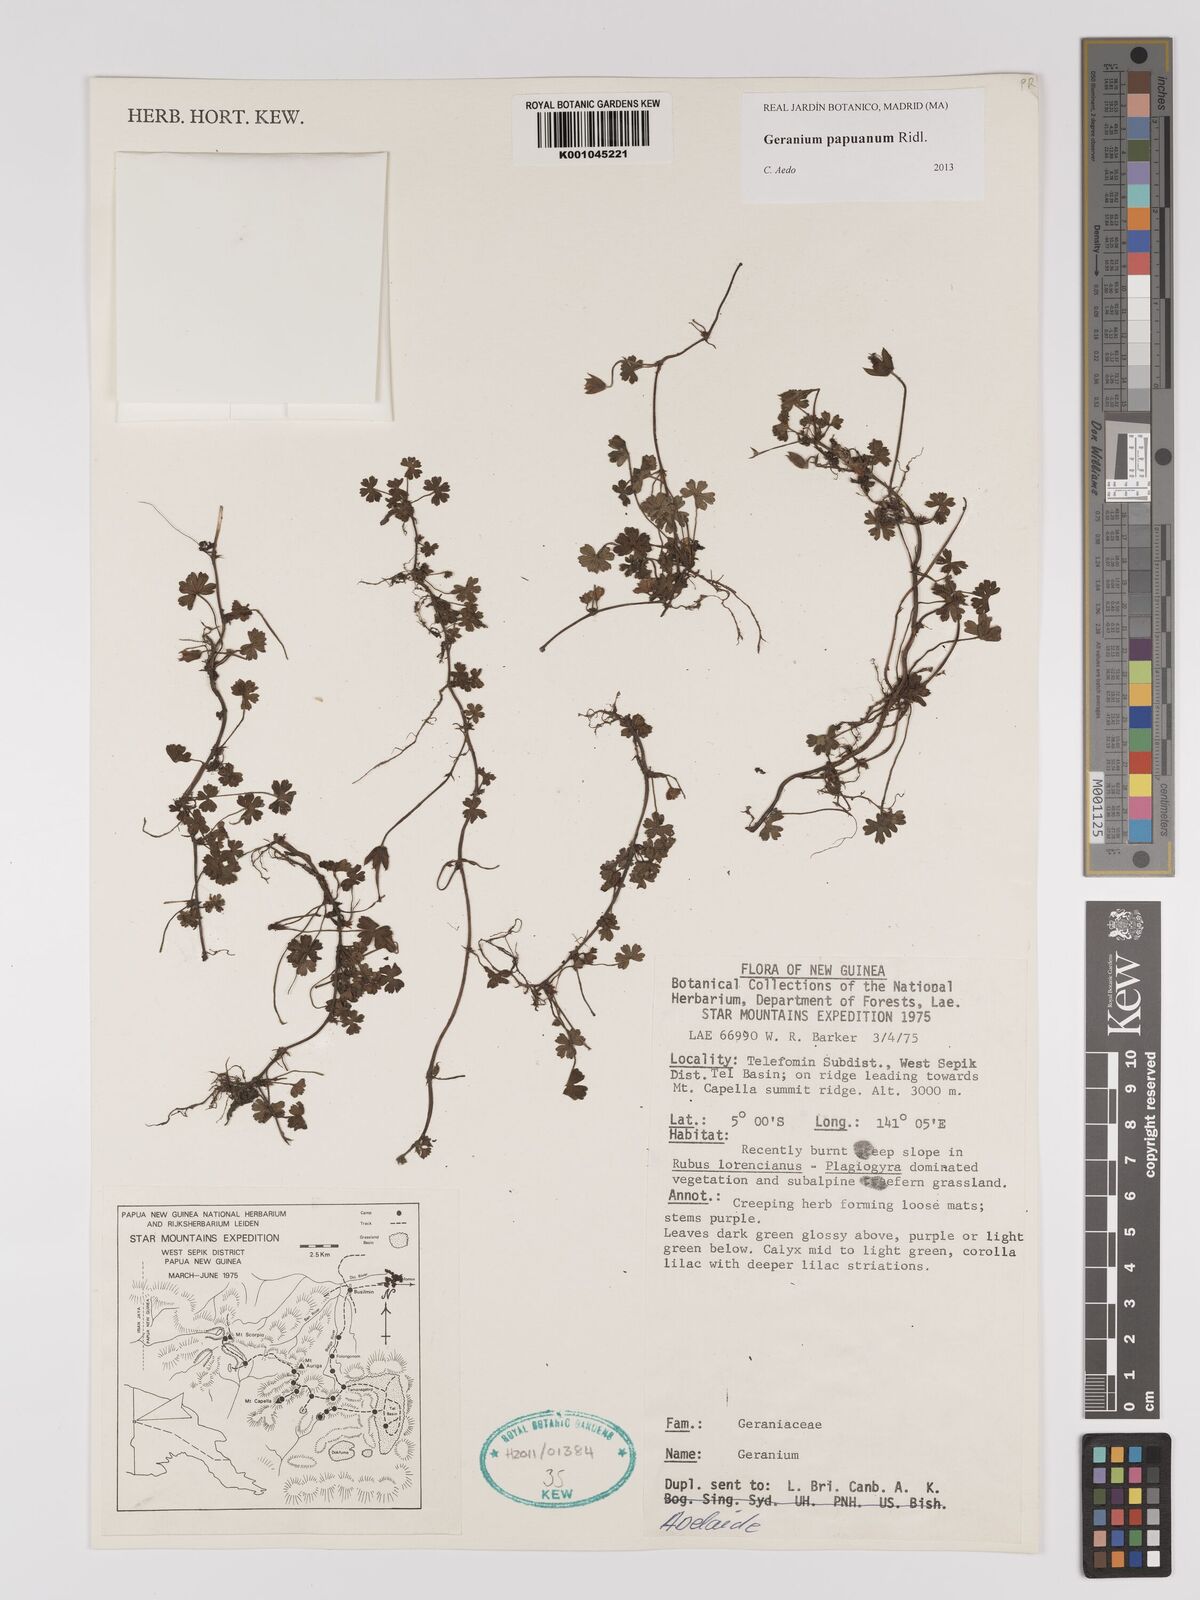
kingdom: Plantae
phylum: Tracheophyta
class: Magnoliopsida
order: Geraniales
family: Geraniaceae
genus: Geranium
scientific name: Geranium papuanum
